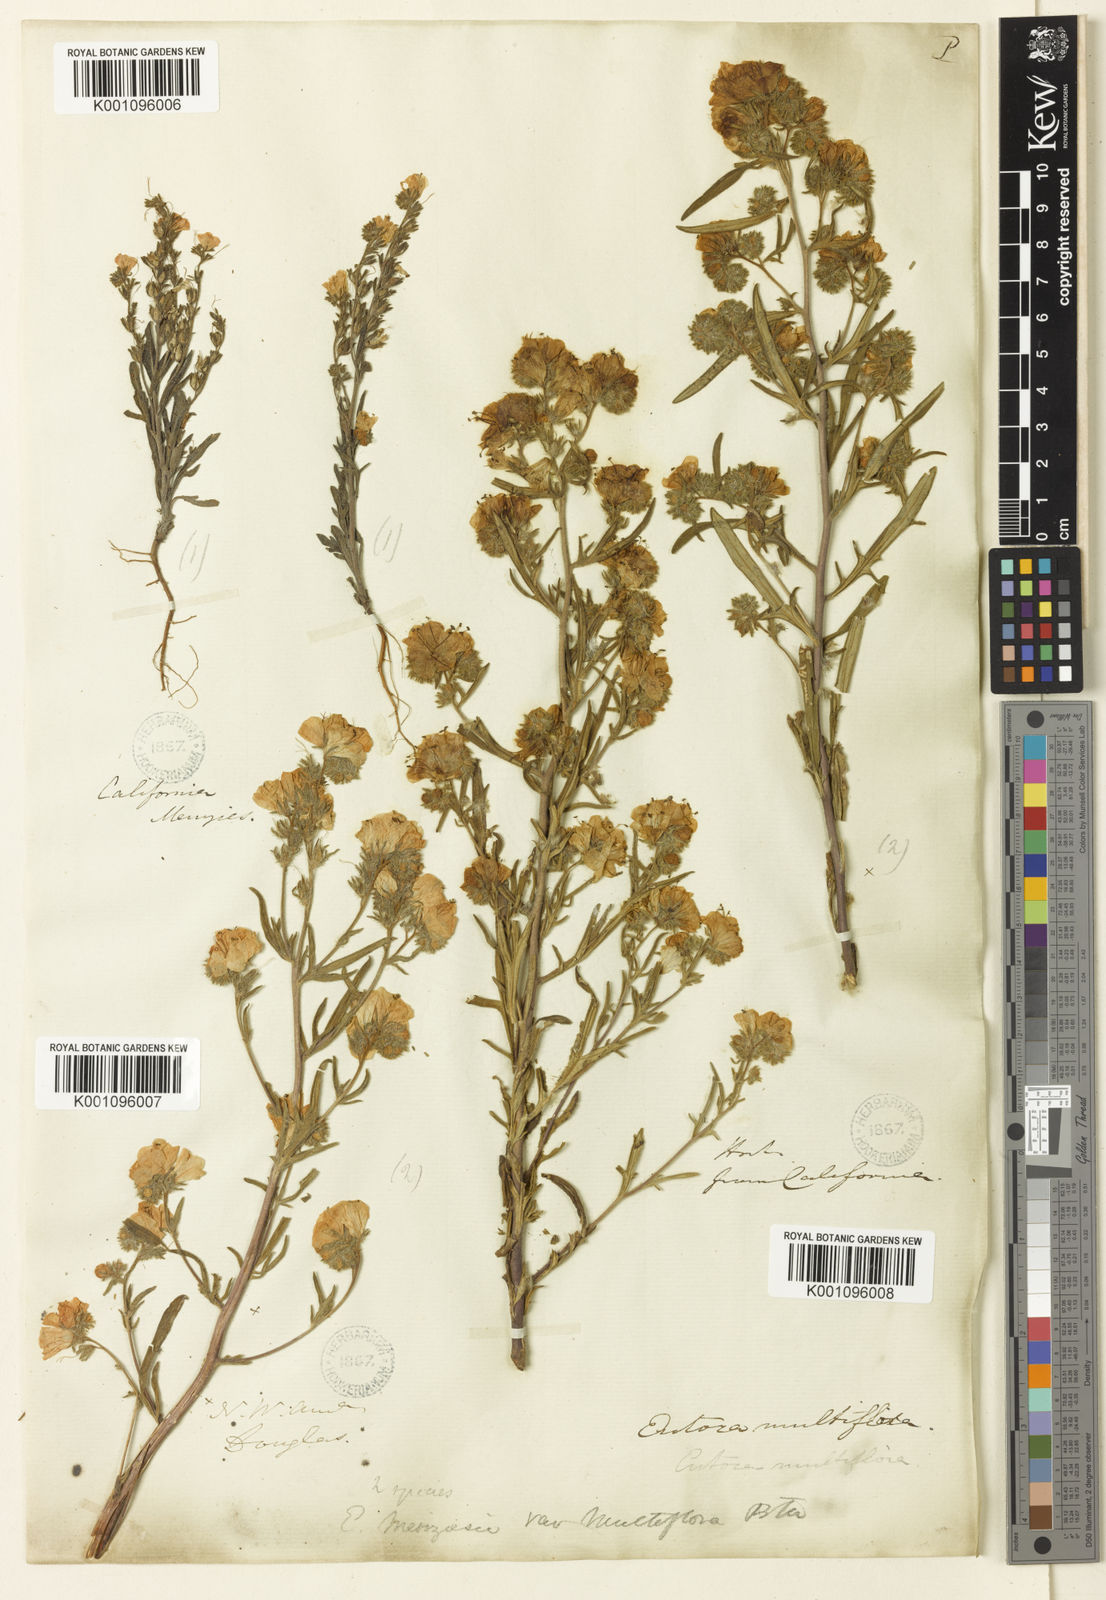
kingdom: Plantae
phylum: Tracheophyta
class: Magnoliopsida
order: Boraginales
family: Hydrophyllaceae
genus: Phacelia
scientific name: Phacelia linearis
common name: Linear-leaved phacelia
